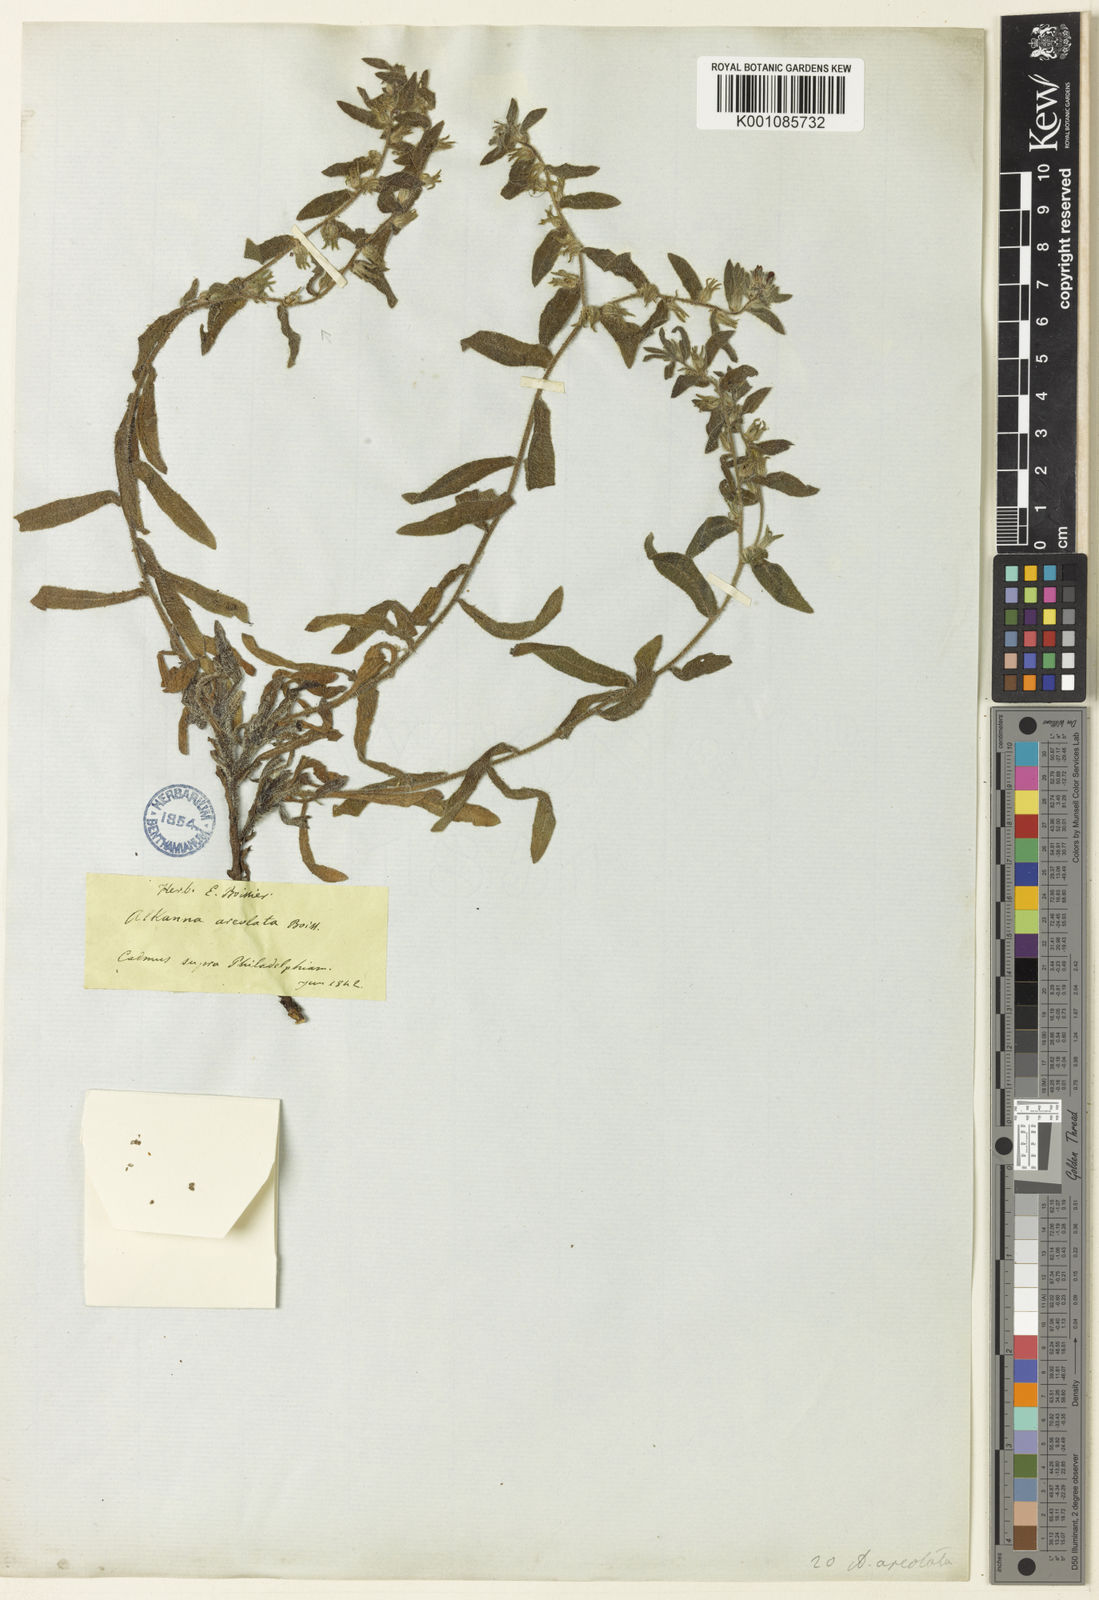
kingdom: Plantae
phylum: Tracheophyta
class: Magnoliopsida
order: Boraginales
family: Boraginaceae
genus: Alkanna
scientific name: Alkanna areolata
